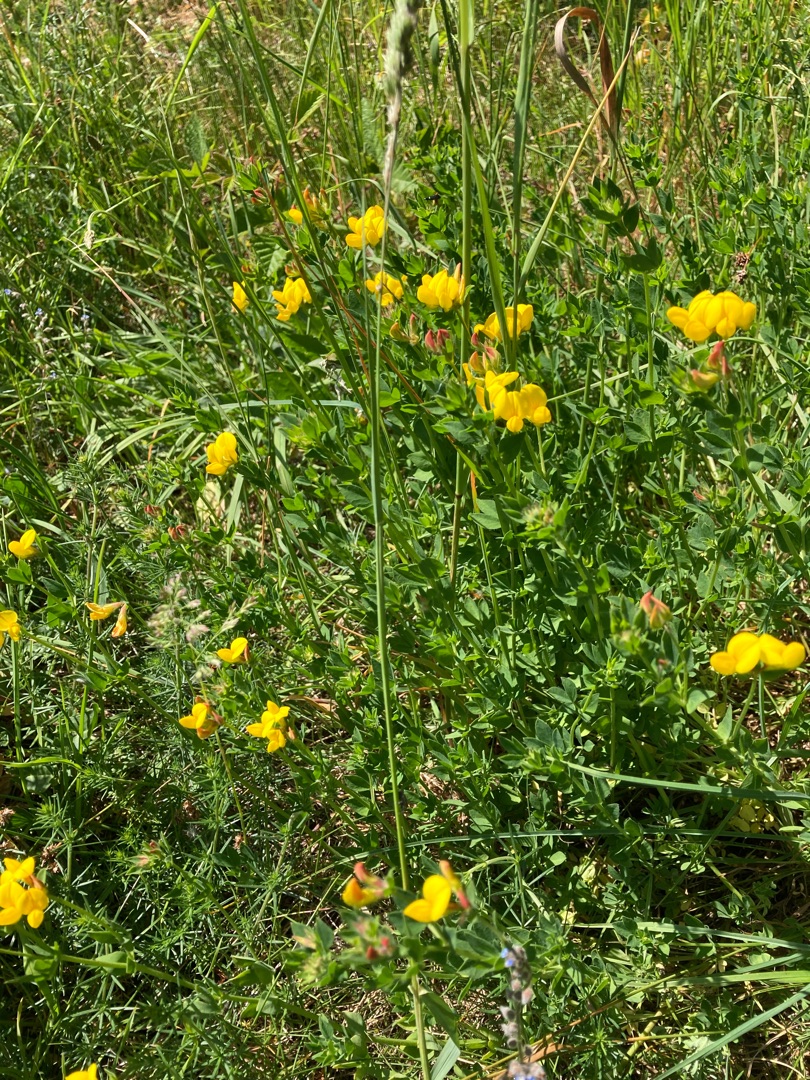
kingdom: Plantae
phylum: Tracheophyta
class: Magnoliopsida
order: Fabales
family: Fabaceae
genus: Lotus
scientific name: Lotus corniculatus
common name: Almindelig kællingetand
